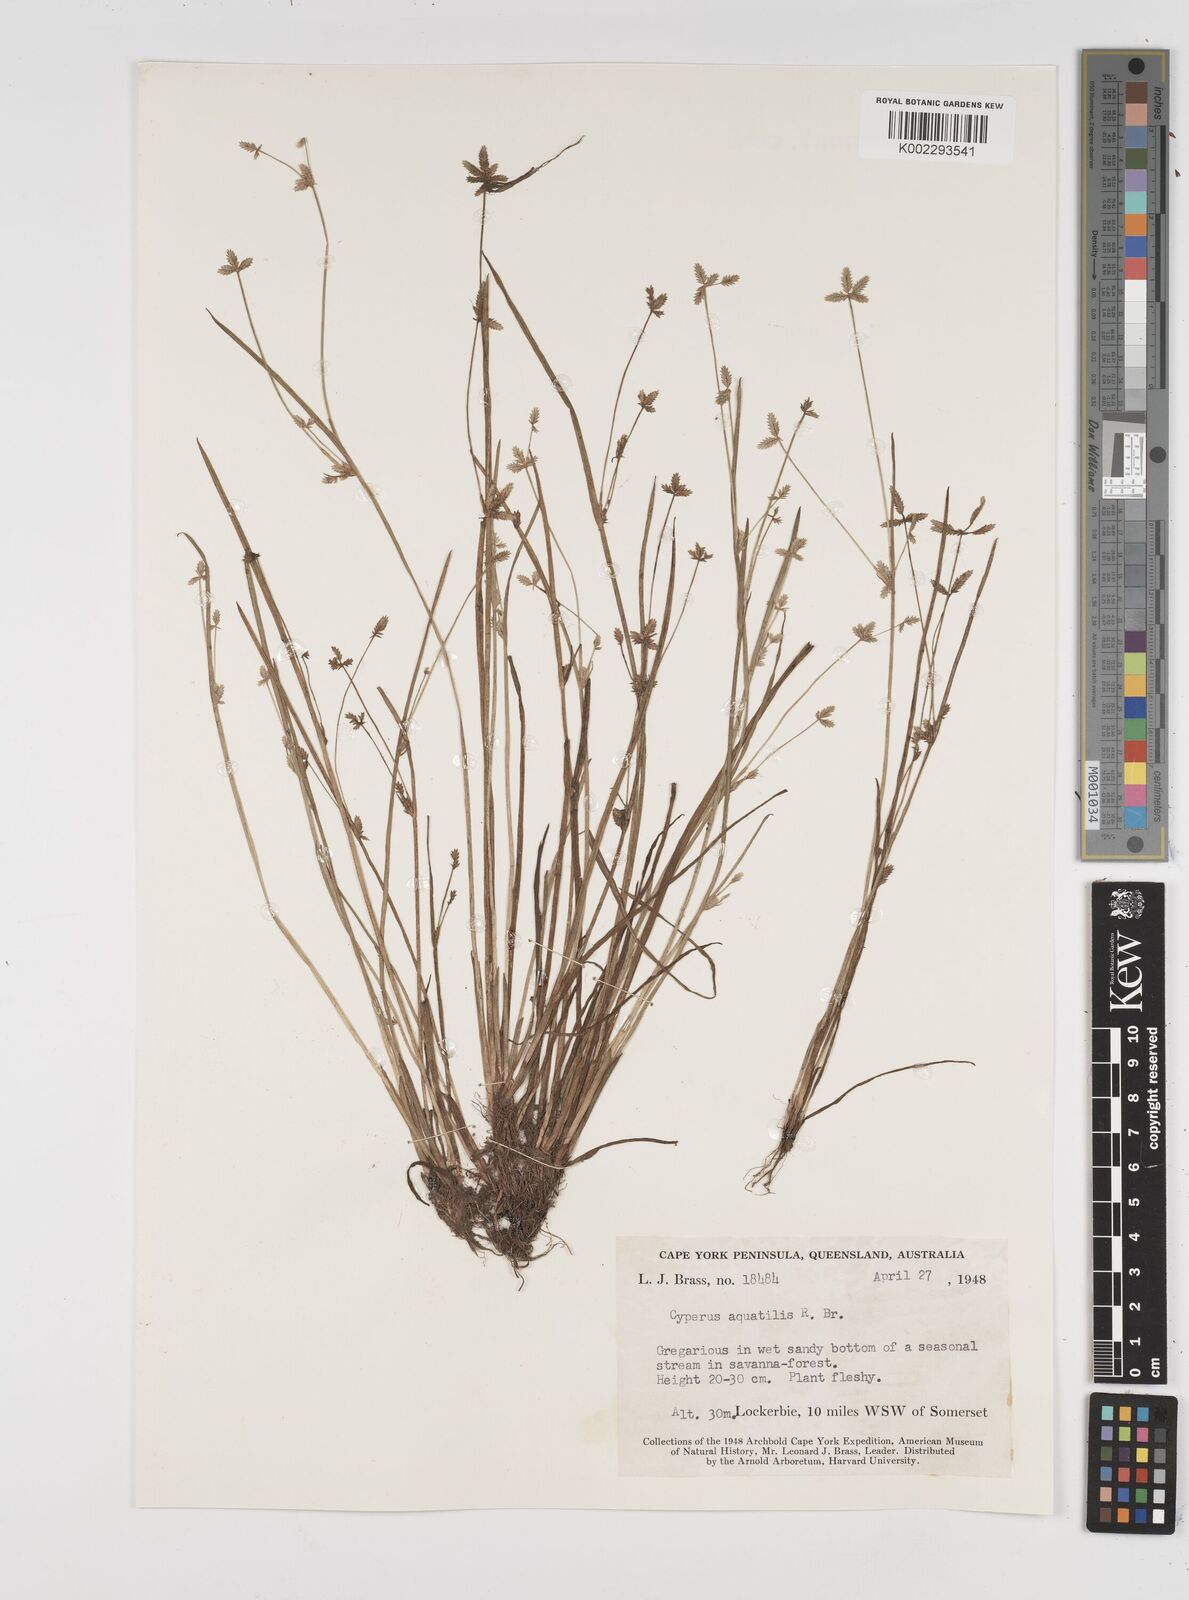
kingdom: Plantae
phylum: Tracheophyta
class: Liliopsida
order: Poales
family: Cyperaceae
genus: Cyperus
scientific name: Cyperus aquatilis
